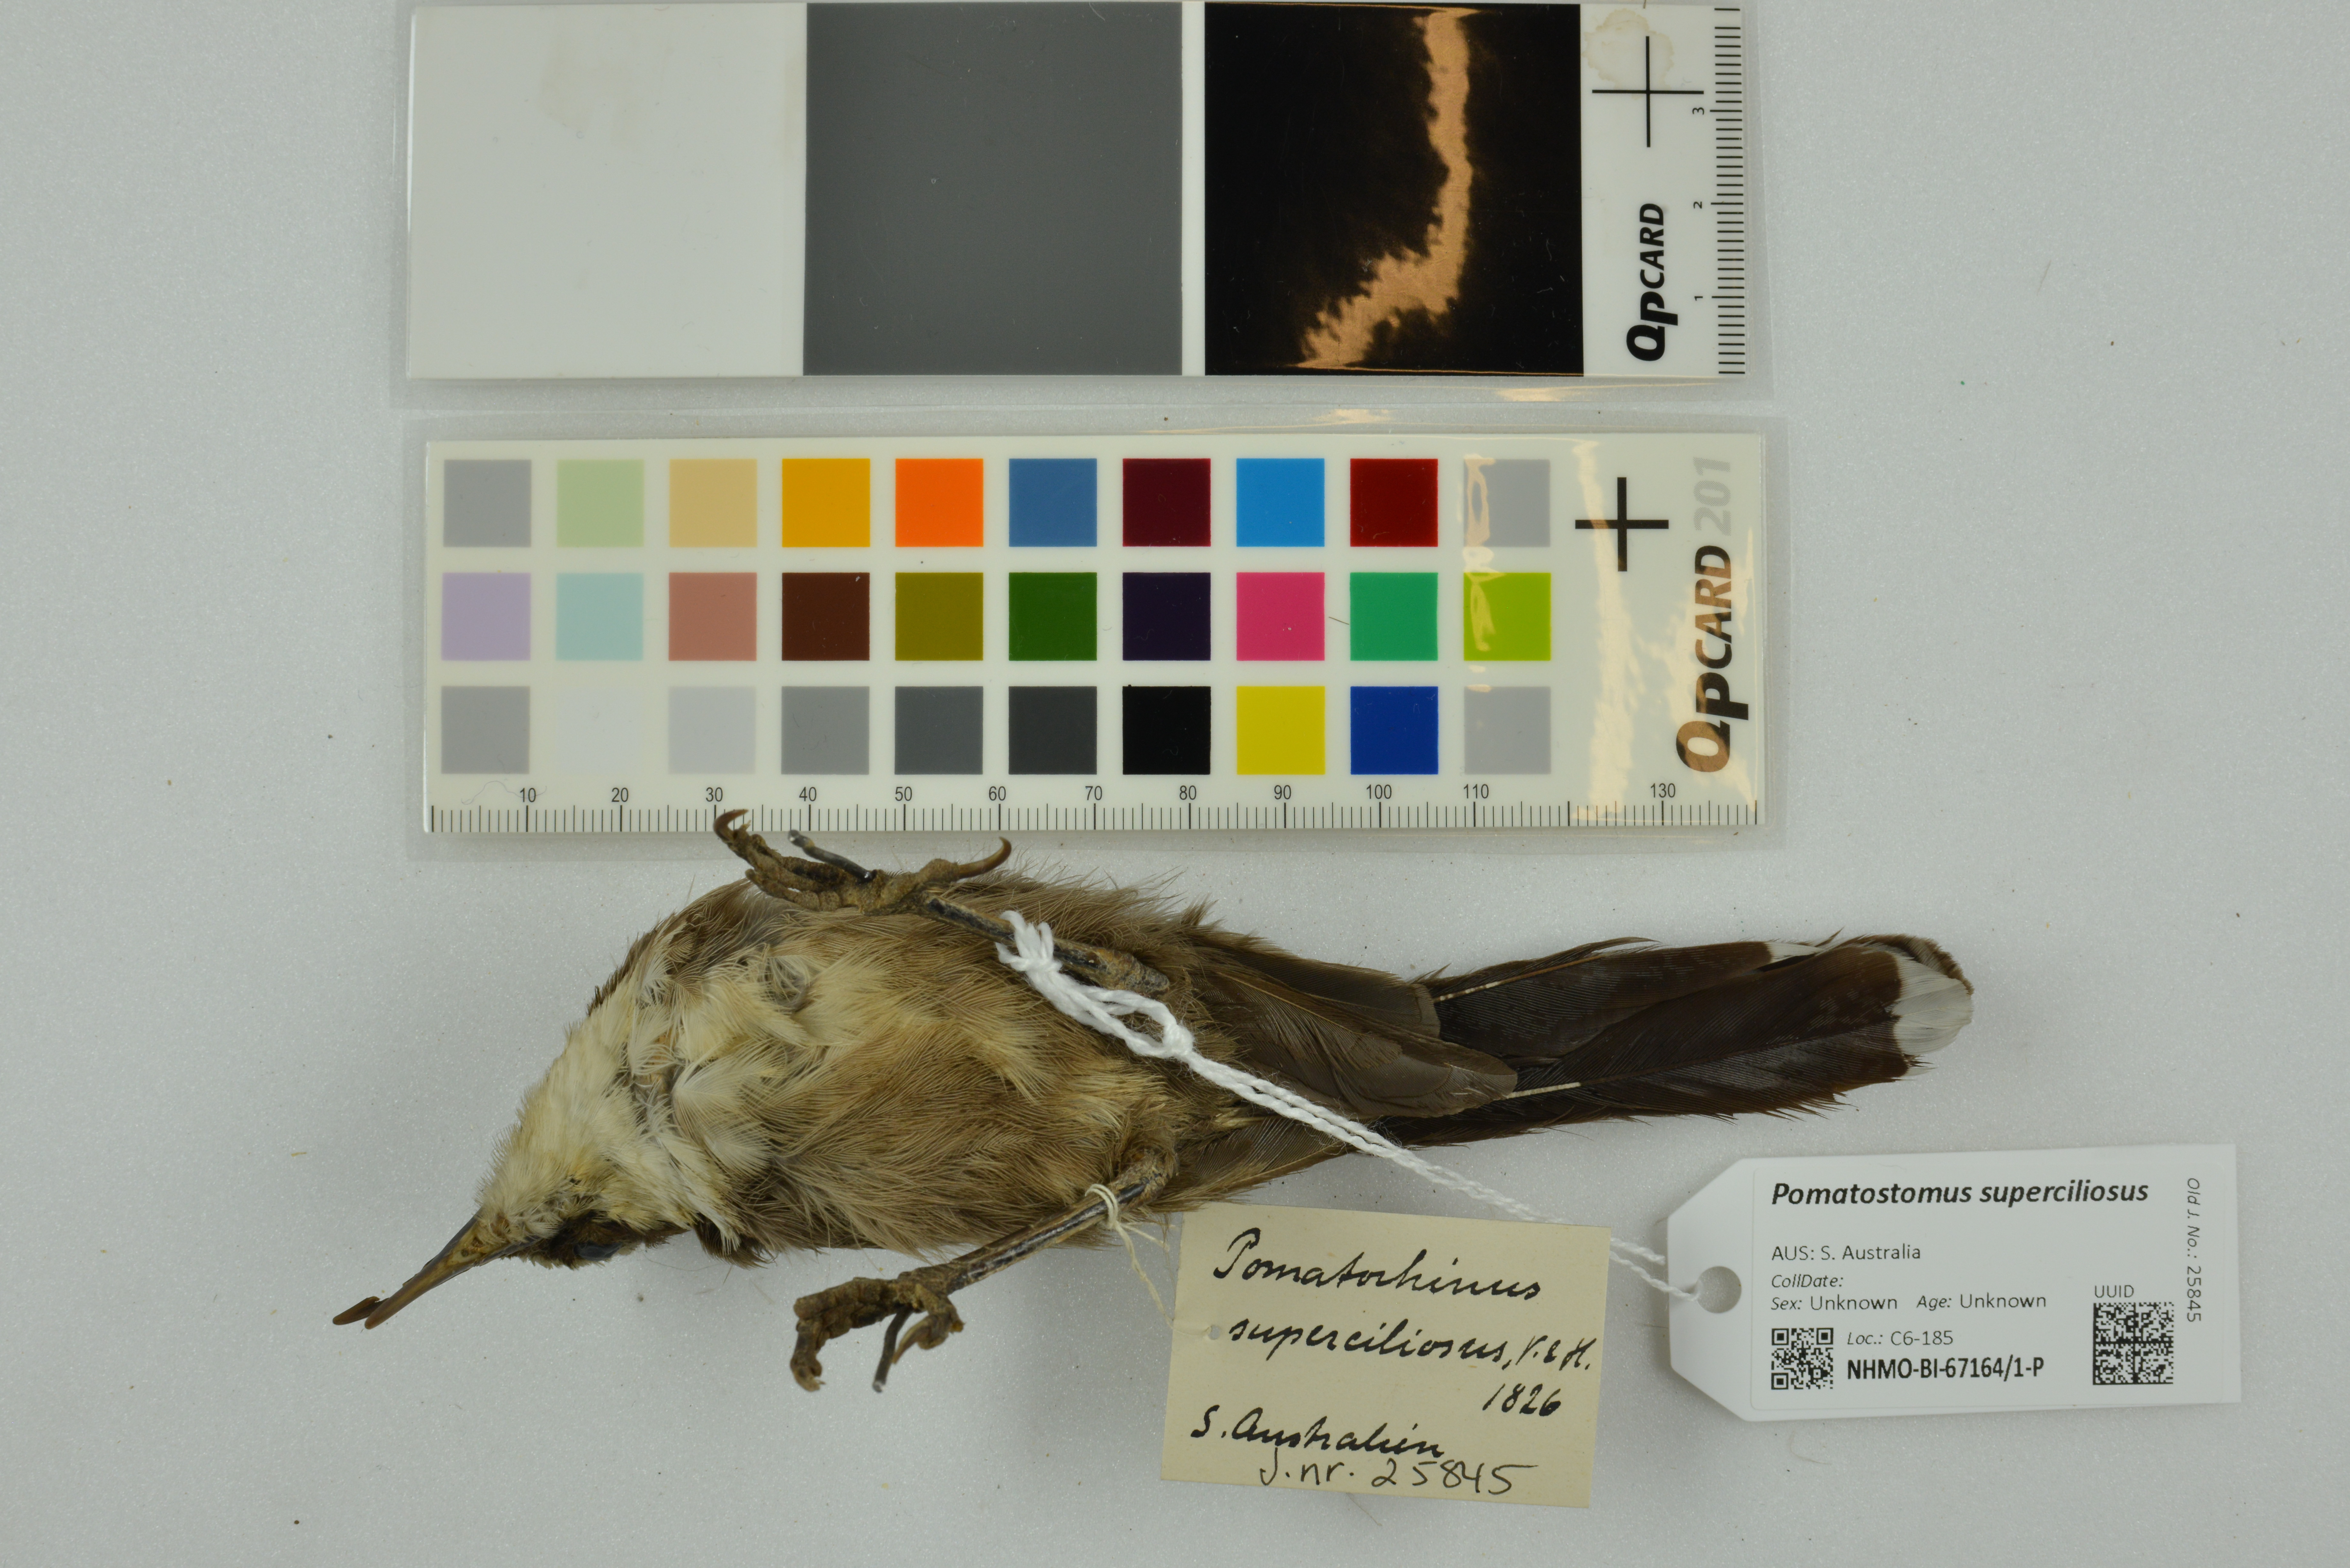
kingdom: Animalia
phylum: Chordata
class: Aves
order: Passeriformes
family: Pomatostomidae
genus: Pomatostomus
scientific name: Pomatostomus superciliosus
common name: White-browed babbler
